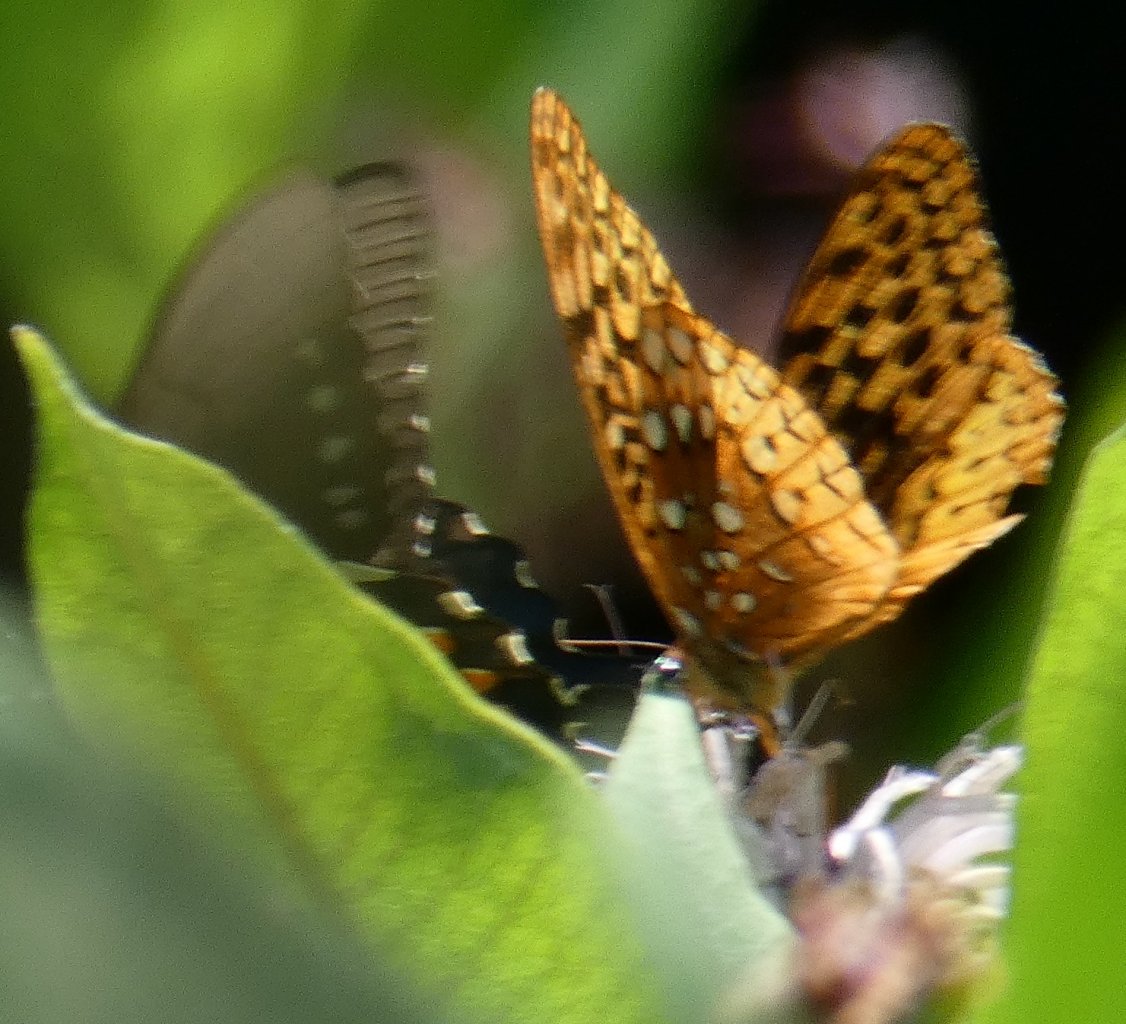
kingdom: Animalia
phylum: Arthropoda
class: Insecta
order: Lepidoptera
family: Nymphalidae
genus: Speyeria
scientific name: Speyeria cybele
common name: Great Spangled Fritillary
